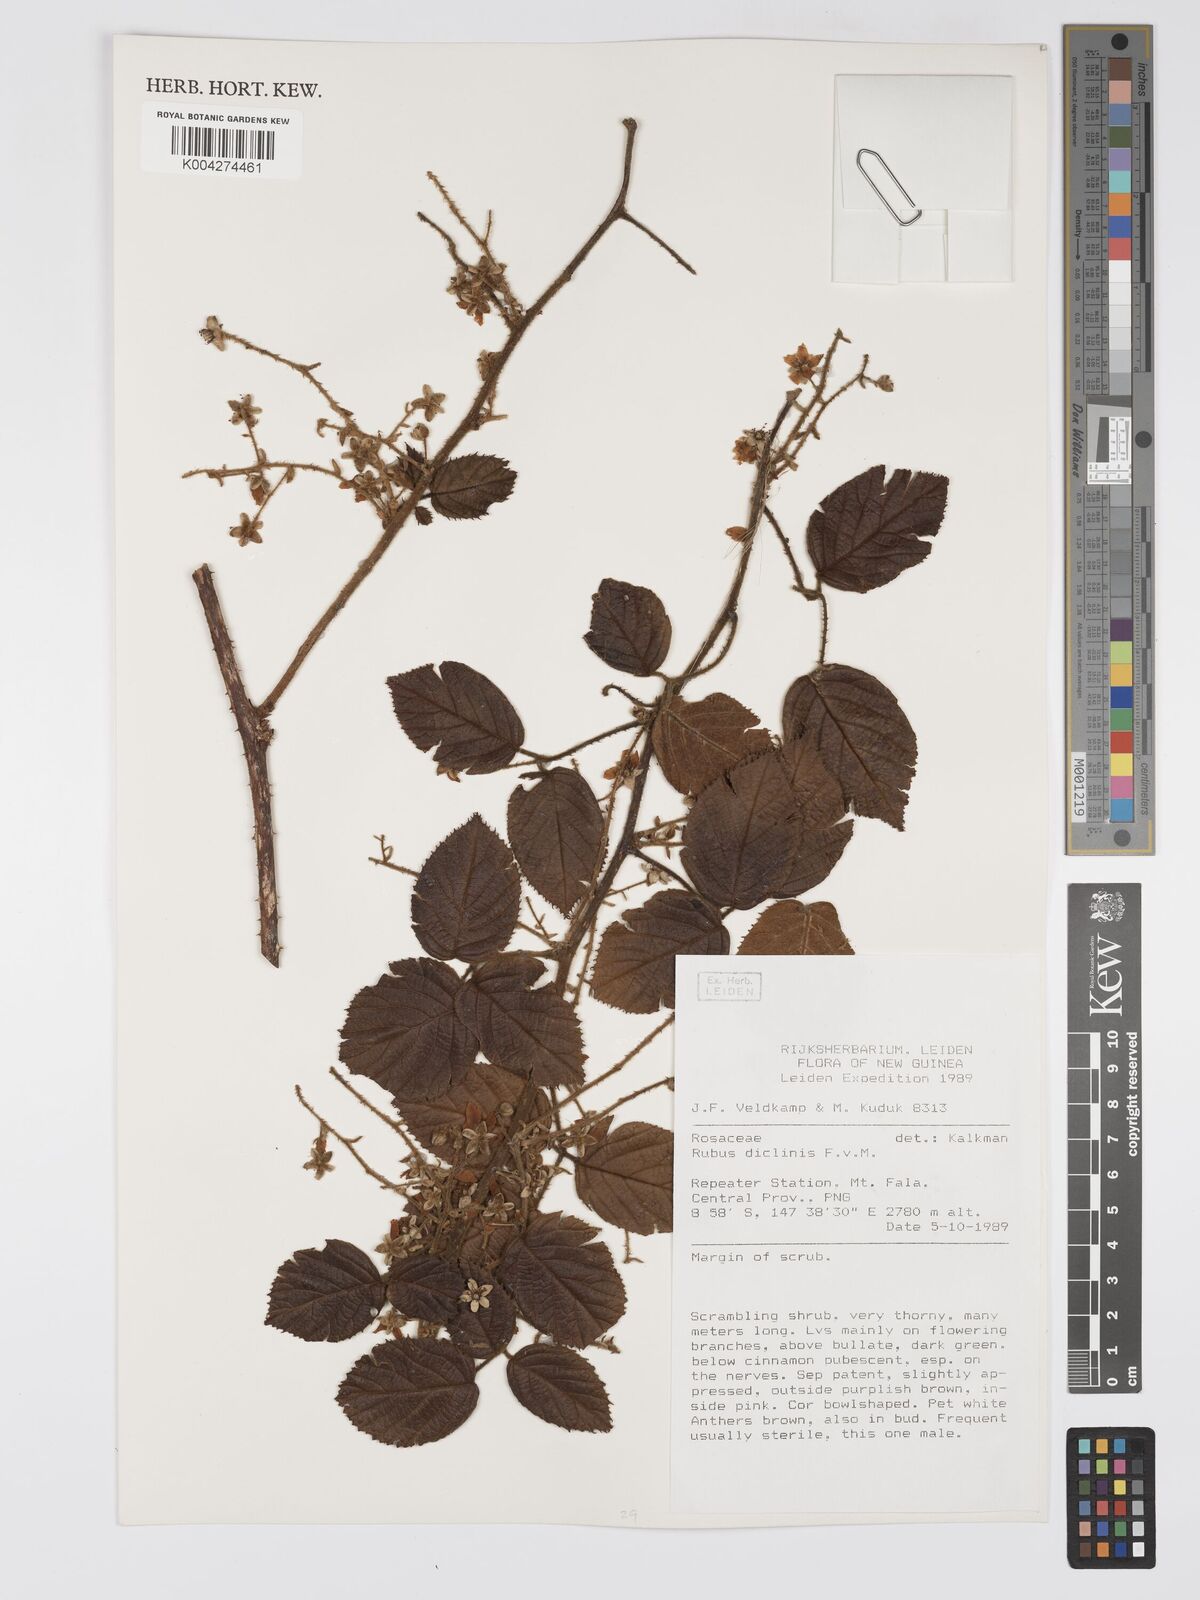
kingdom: Plantae
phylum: Tracheophyta
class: Magnoliopsida
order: Rosales
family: Rosaceae
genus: Rubus
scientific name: Rubus diclinis
